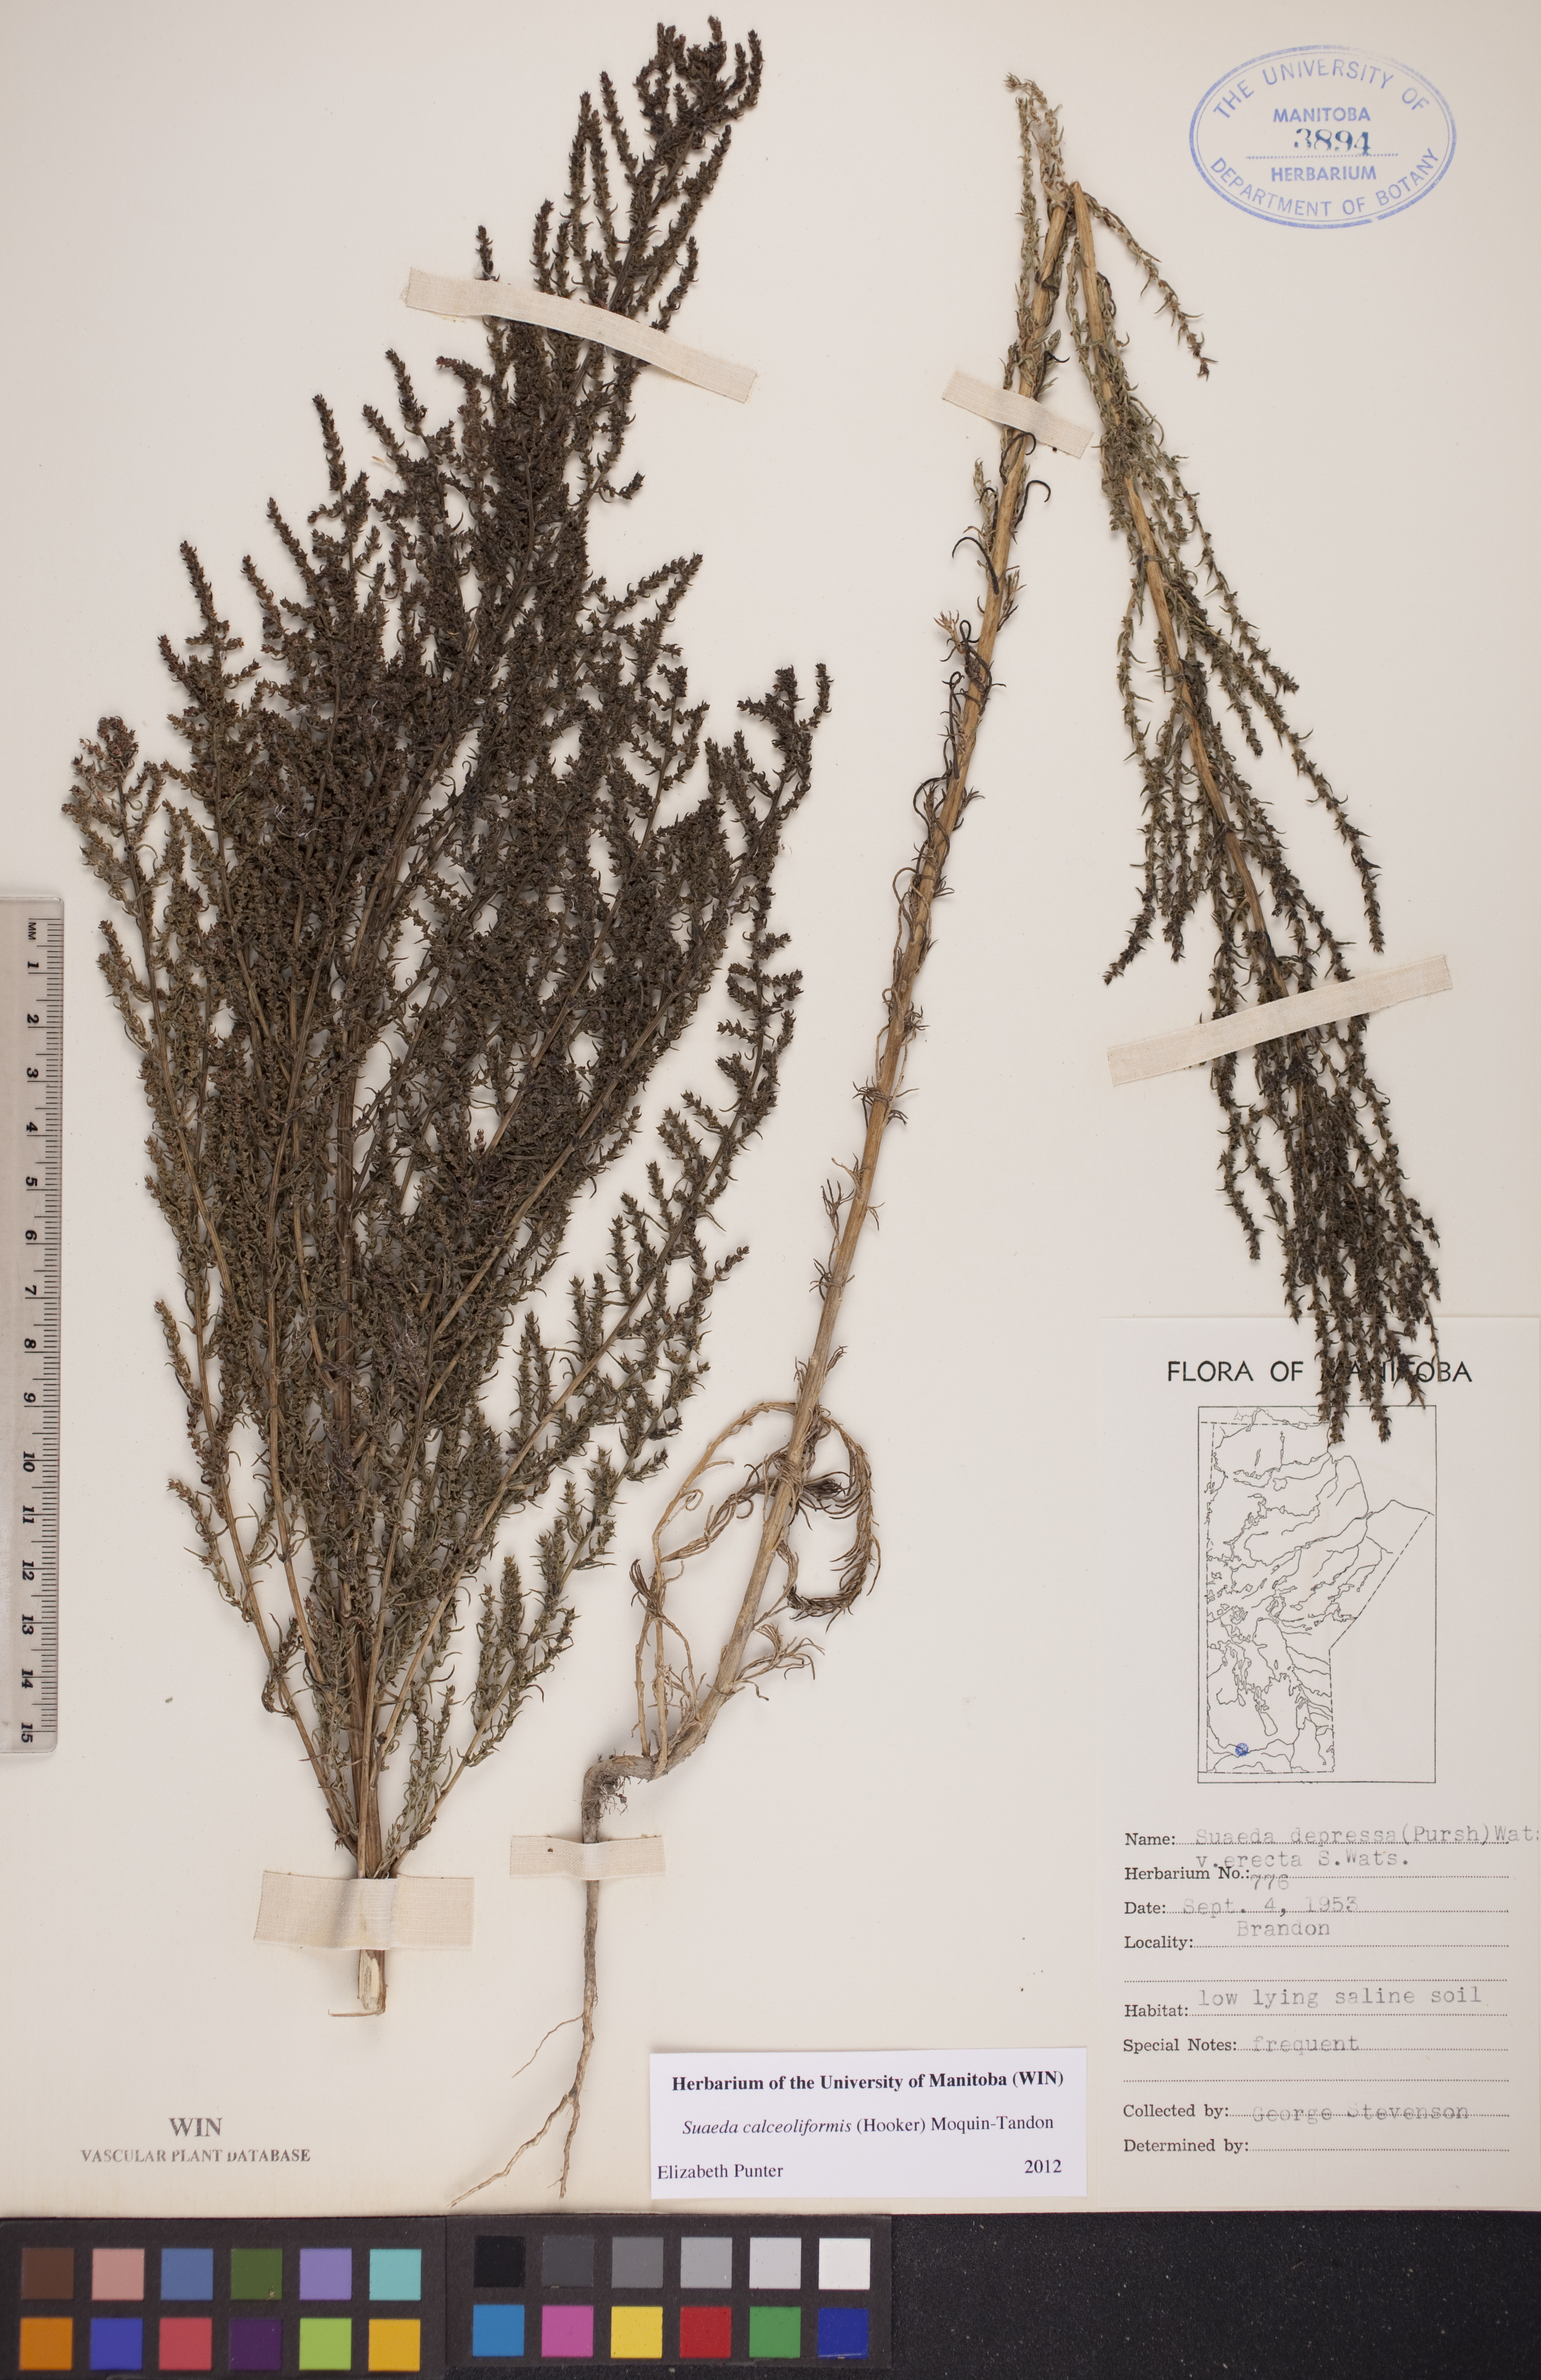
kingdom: Plantae
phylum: Tracheophyta
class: Magnoliopsida
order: Caryophyllales
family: Amaranthaceae
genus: Suaeda
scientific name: Suaeda calceoliformis
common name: Pursh's seepweed
